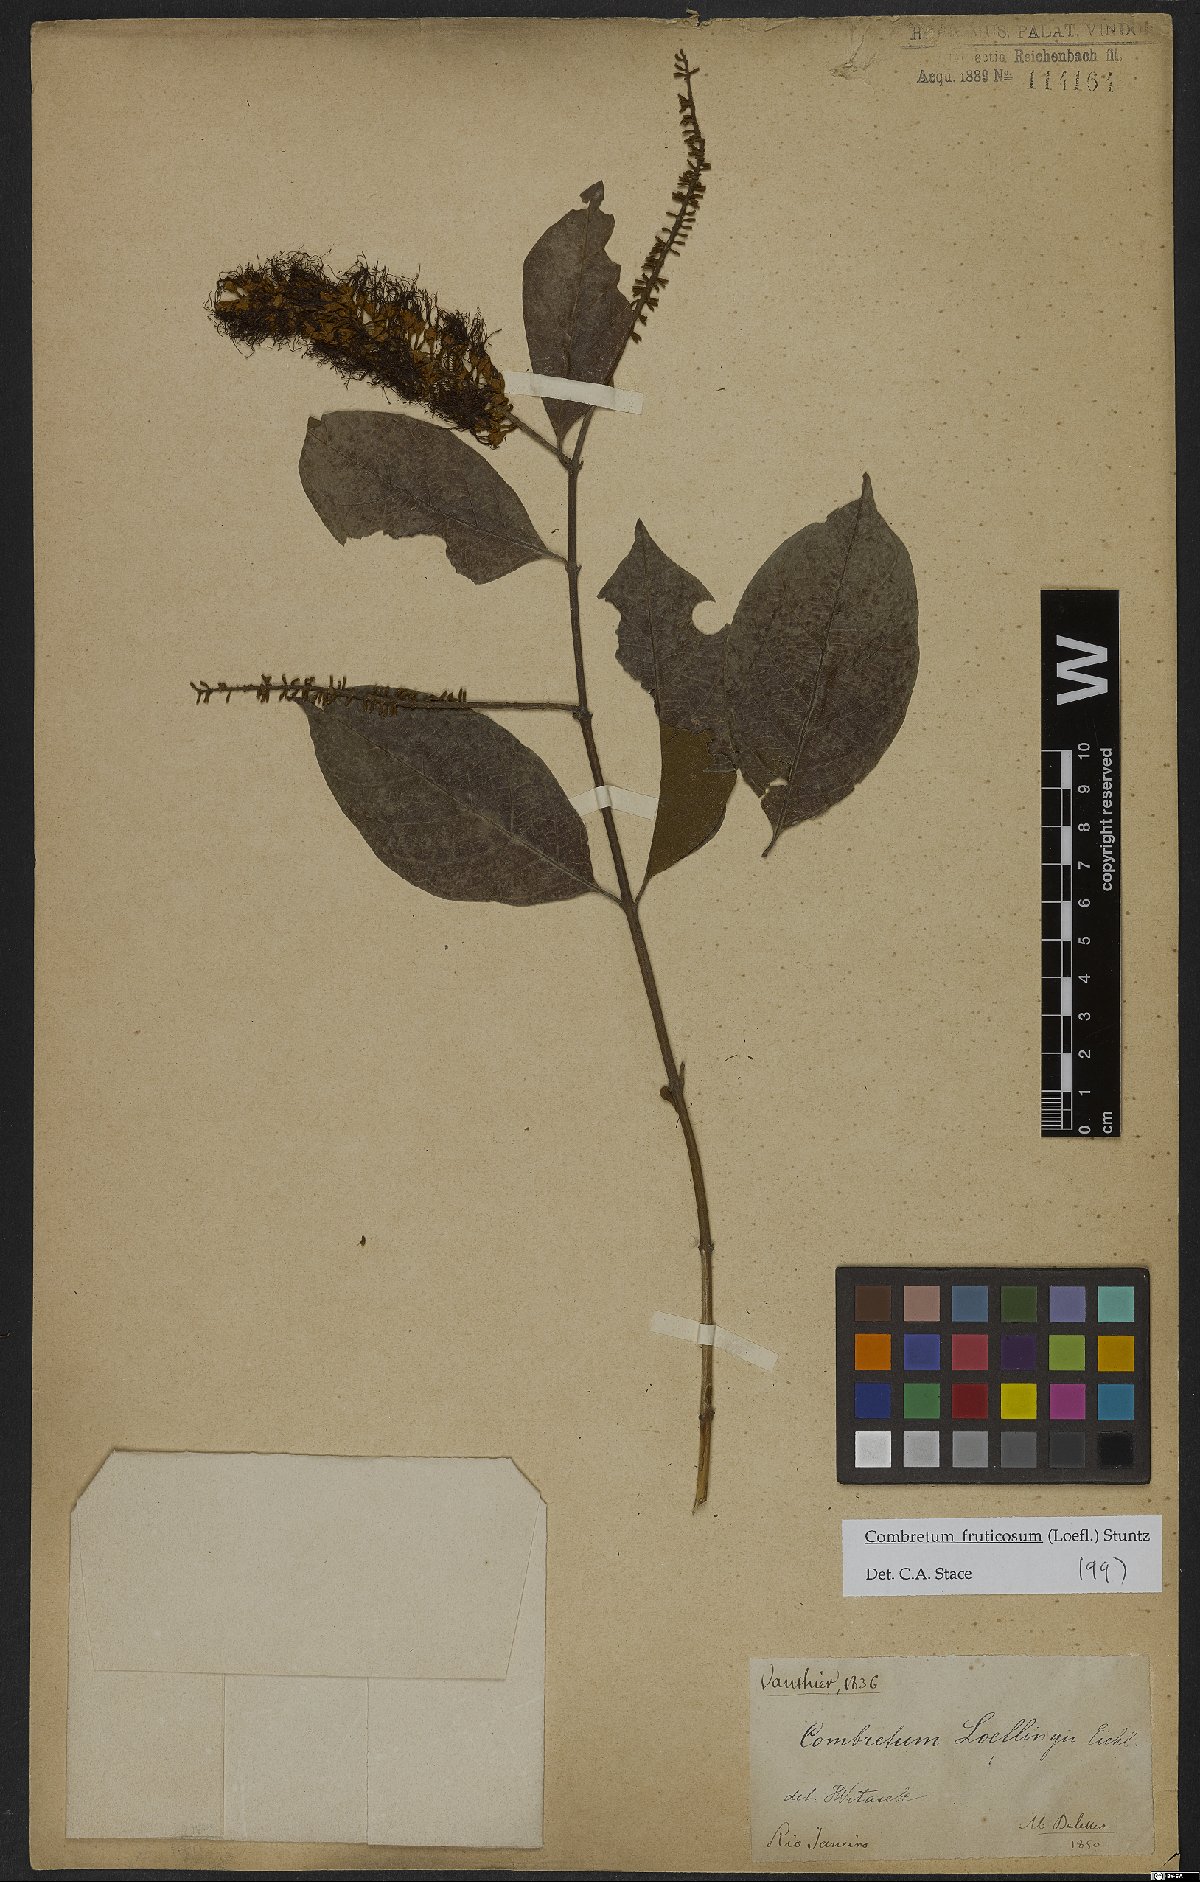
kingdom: Plantae
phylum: Tracheophyta
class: Magnoliopsida
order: Myrtales
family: Combretaceae
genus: Combretum
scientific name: Combretum fruticosum
